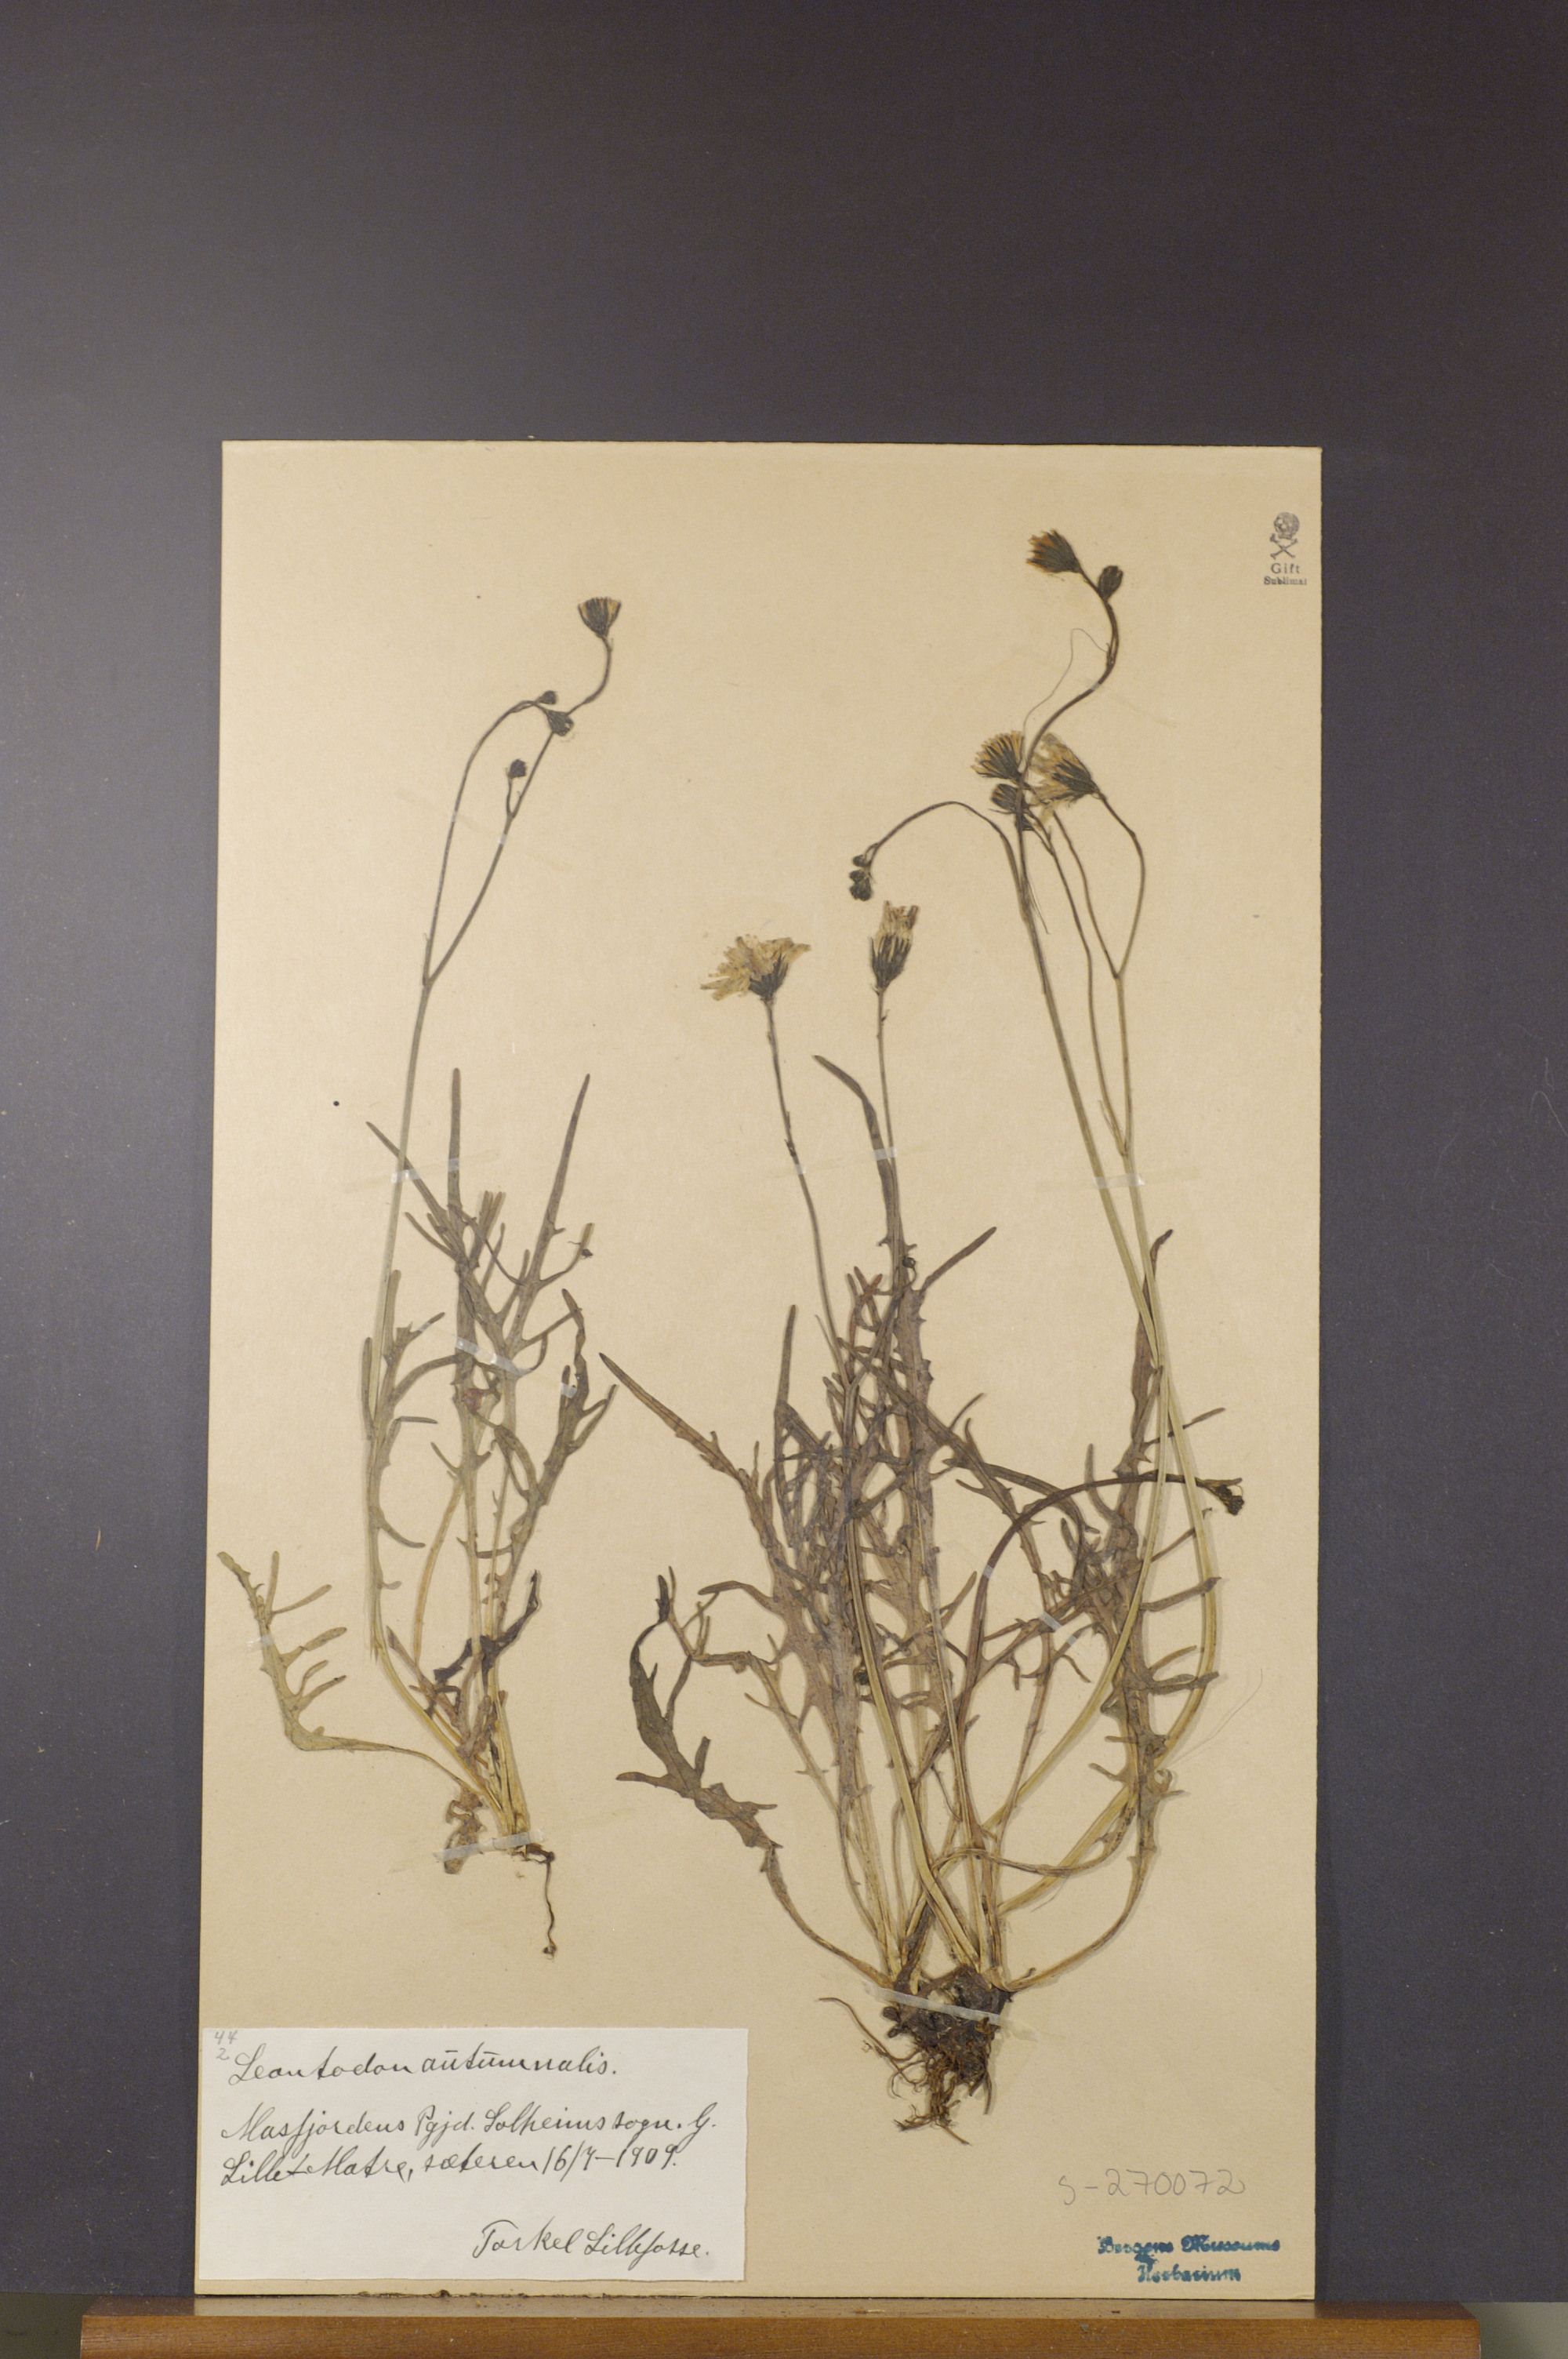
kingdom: Plantae
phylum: Tracheophyta
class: Magnoliopsida
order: Asterales
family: Asteraceae
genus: Scorzoneroides
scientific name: Scorzoneroides autumnalis
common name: Autumn hawkbit
